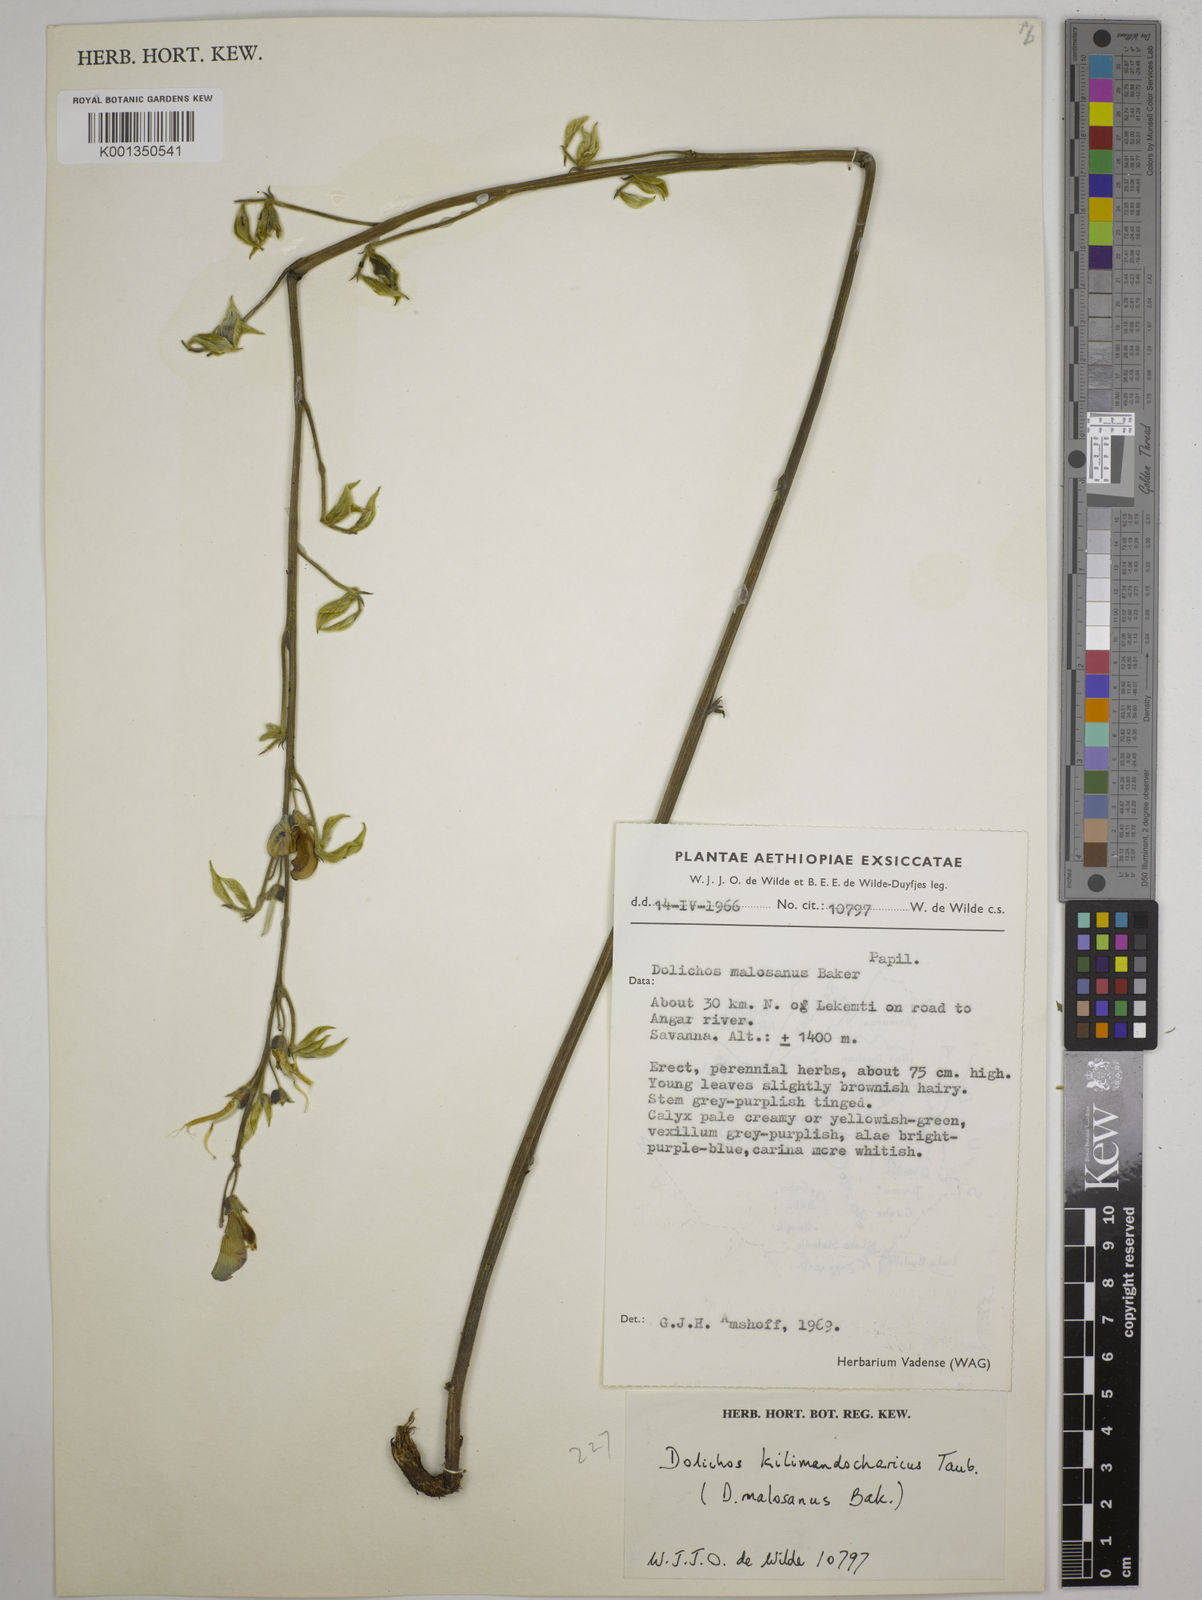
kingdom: Plantae
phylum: Tracheophyta
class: Magnoliopsida
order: Fabales
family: Fabaceae
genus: Dolichos
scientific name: Dolichos kilimandscharicus
